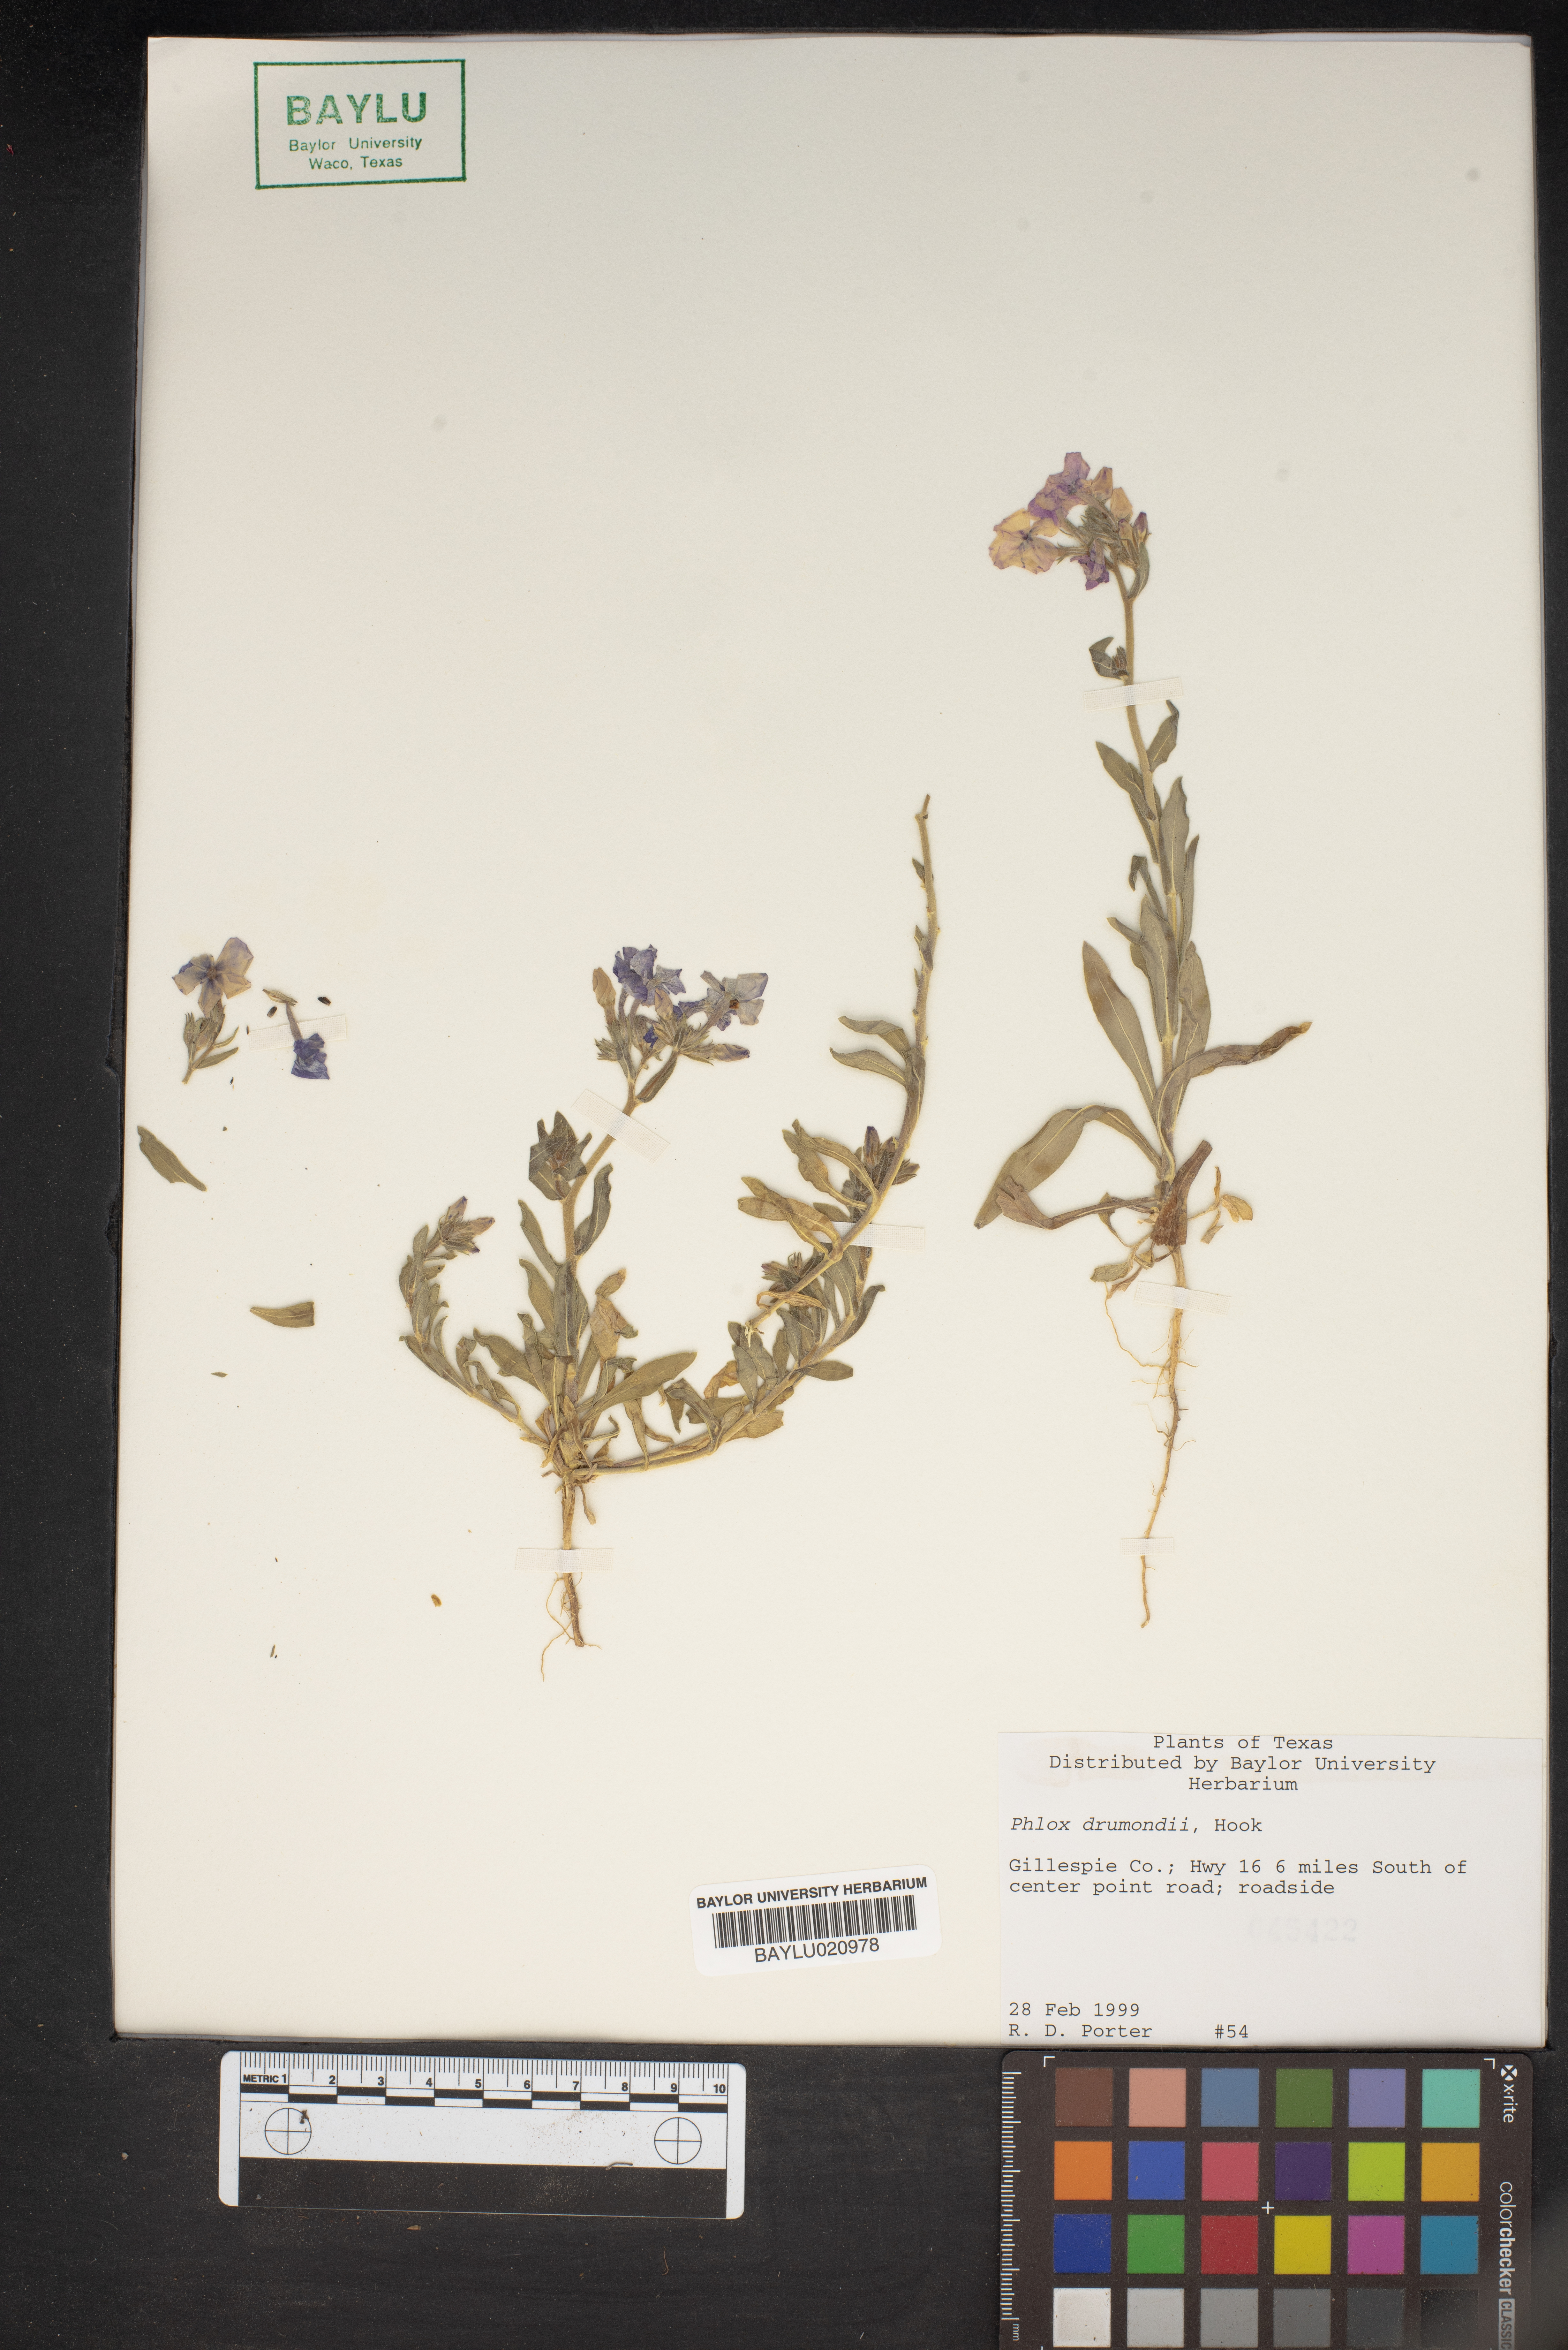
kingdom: Plantae
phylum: Tracheophyta
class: Magnoliopsida
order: Ericales
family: Polemoniaceae
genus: Phlox
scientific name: Phlox drummondii
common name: Drummond's phlox
